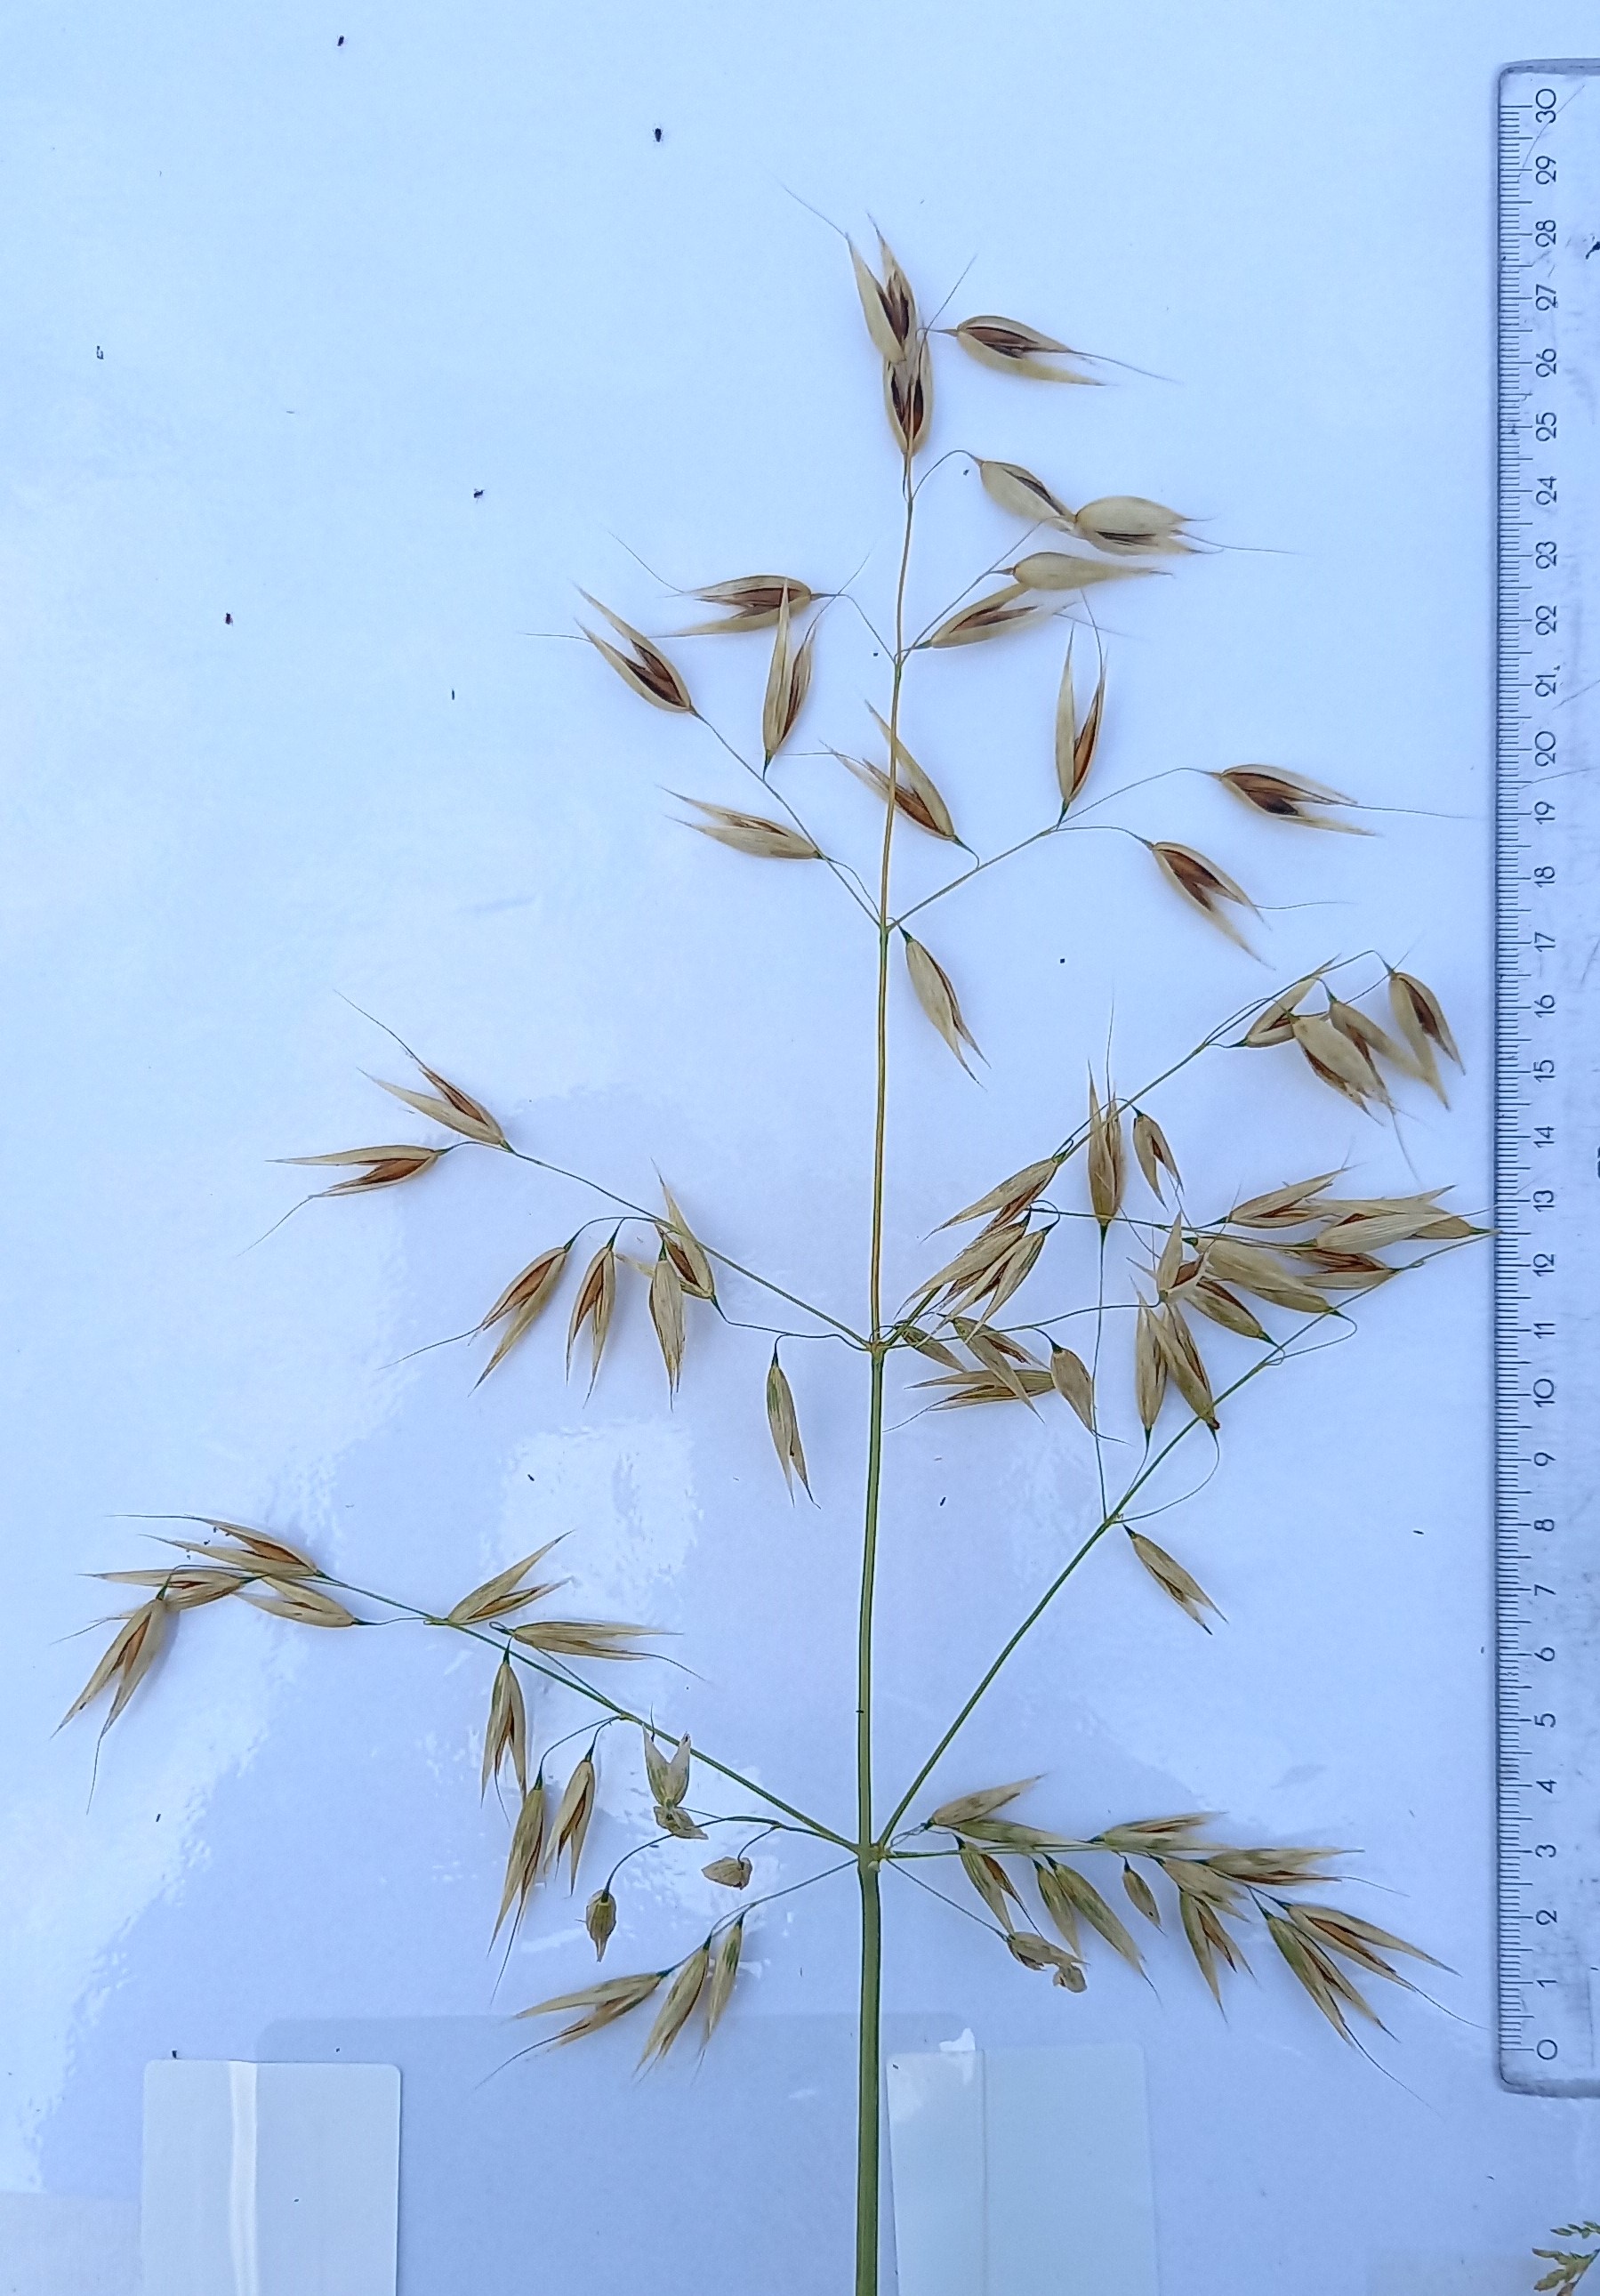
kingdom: Plantae
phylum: Tracheophyta
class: Liliopsida
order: Poales
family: Poaceae
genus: Avena
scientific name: Avena sativa
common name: Oat
